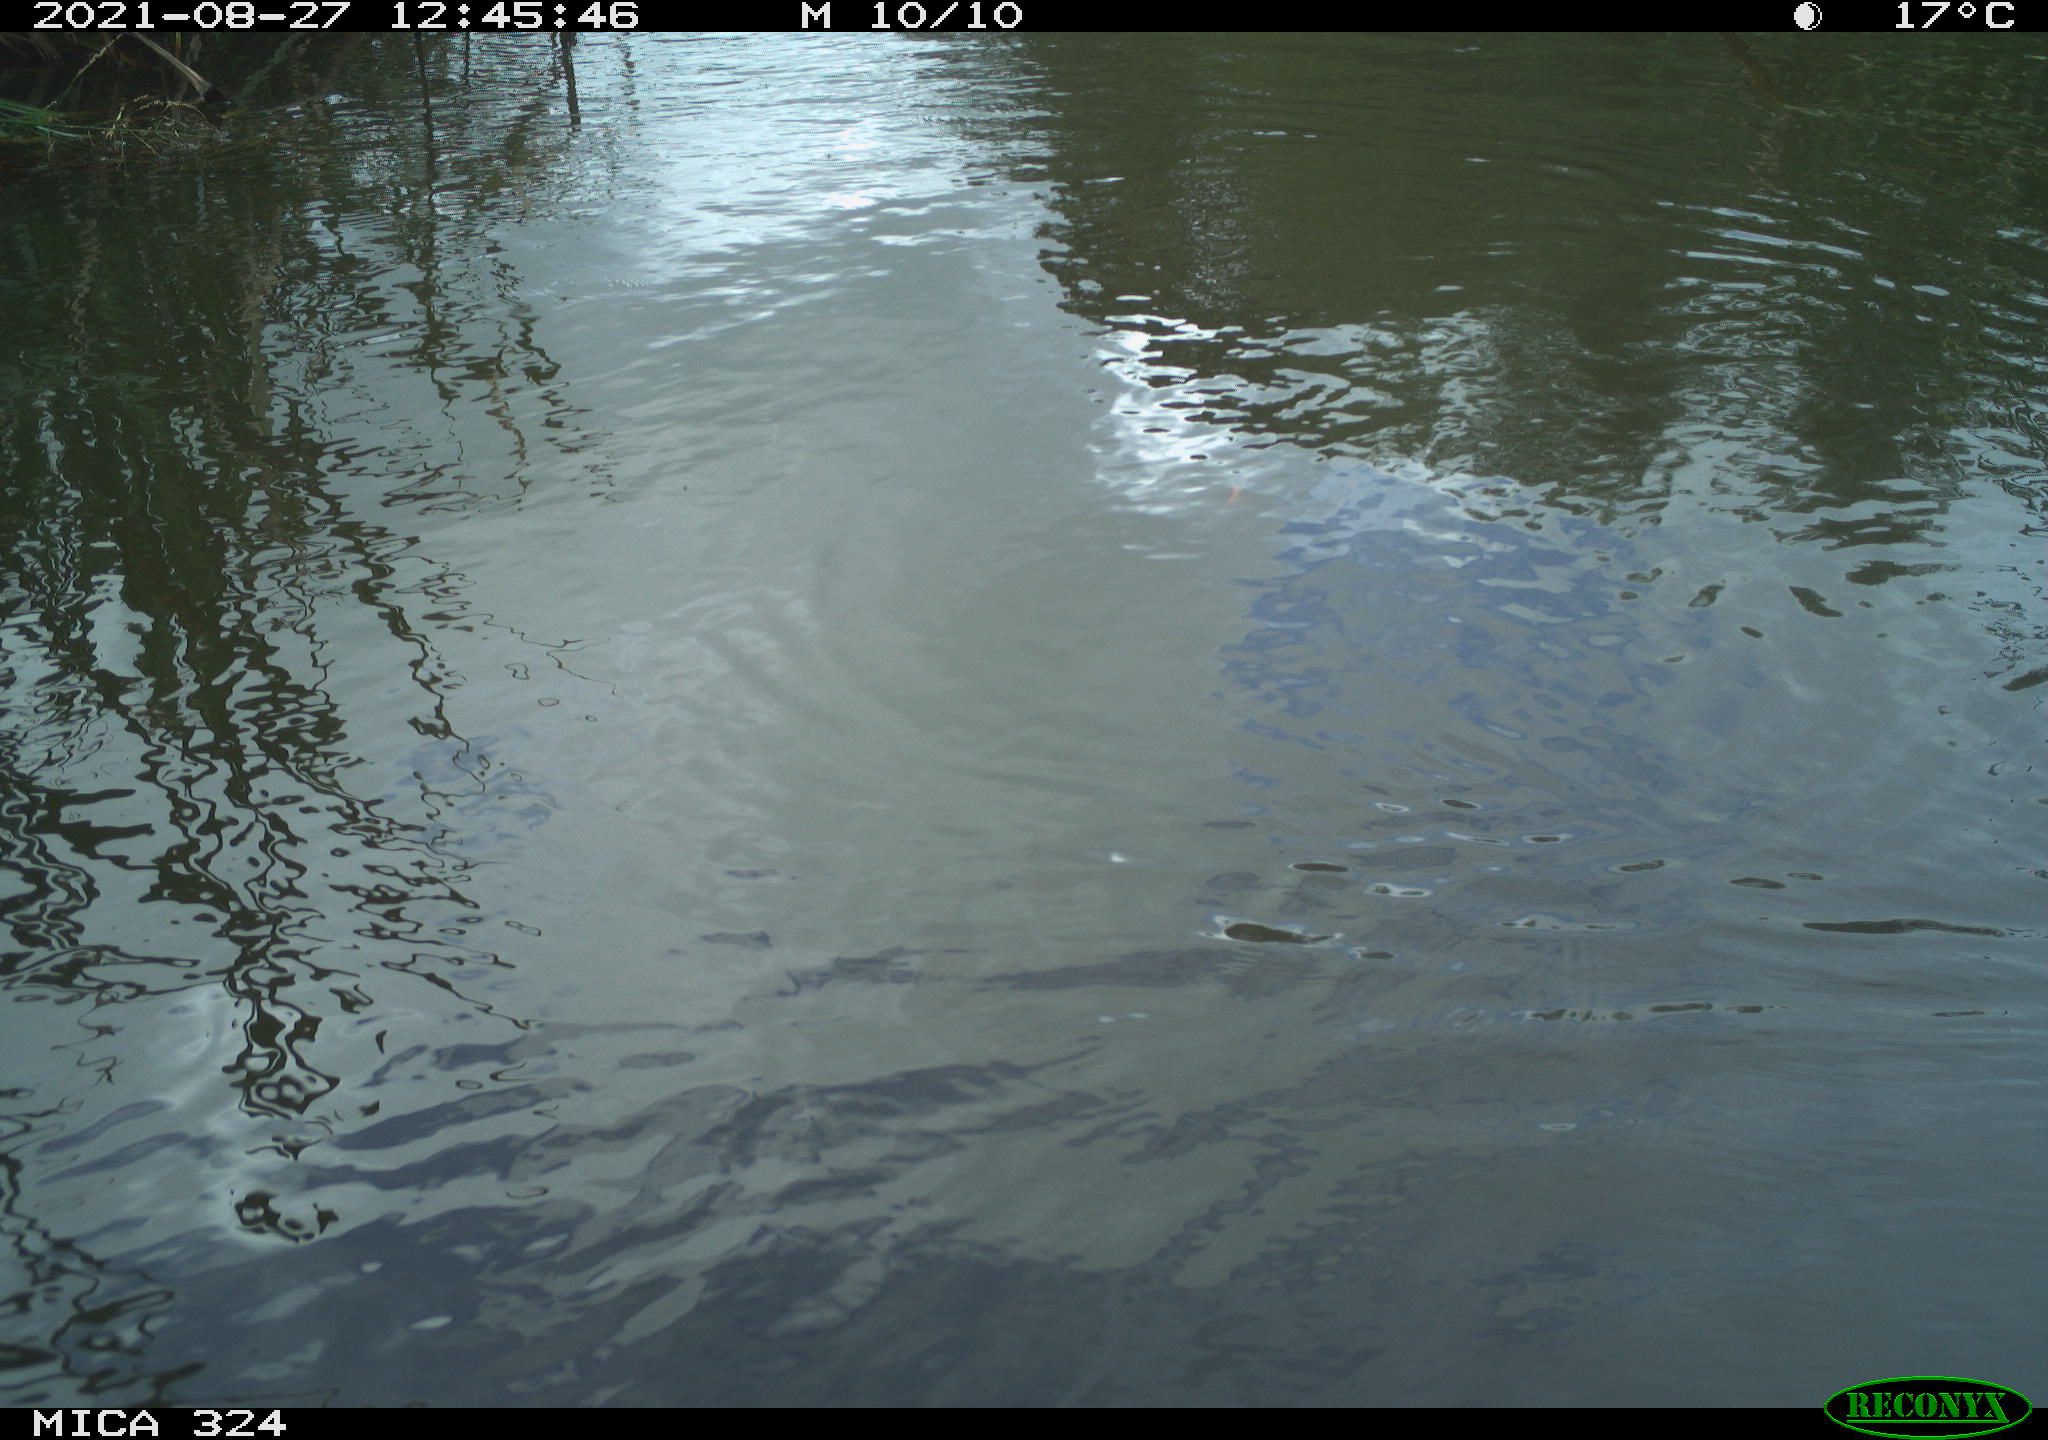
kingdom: Animalia
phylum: Chordata
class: Aves
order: Gruiformes
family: Rallidae
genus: Gallinula
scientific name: Gallinula chloropus
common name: Common moorhen
